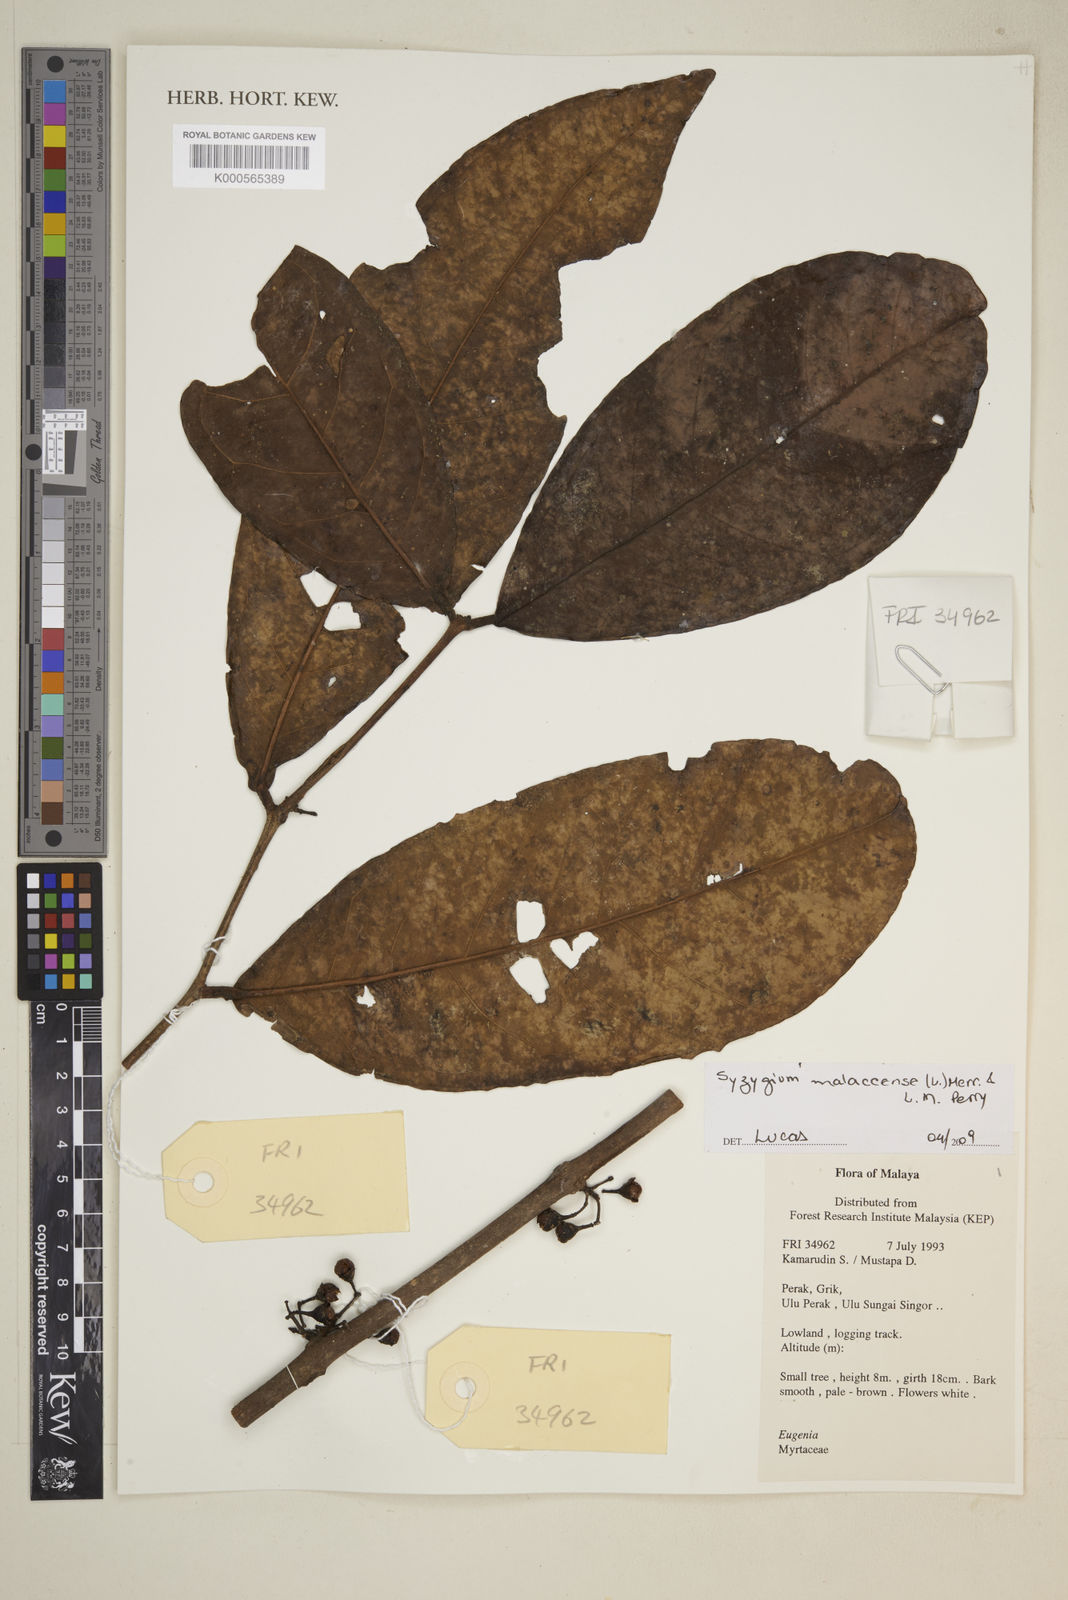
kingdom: Plantae
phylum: Tracheophyta
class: Magnoliopsida
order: Myrtales
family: Myrtaceae
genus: Syzygium
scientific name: Syzygium malaccense
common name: Malaysian apple
